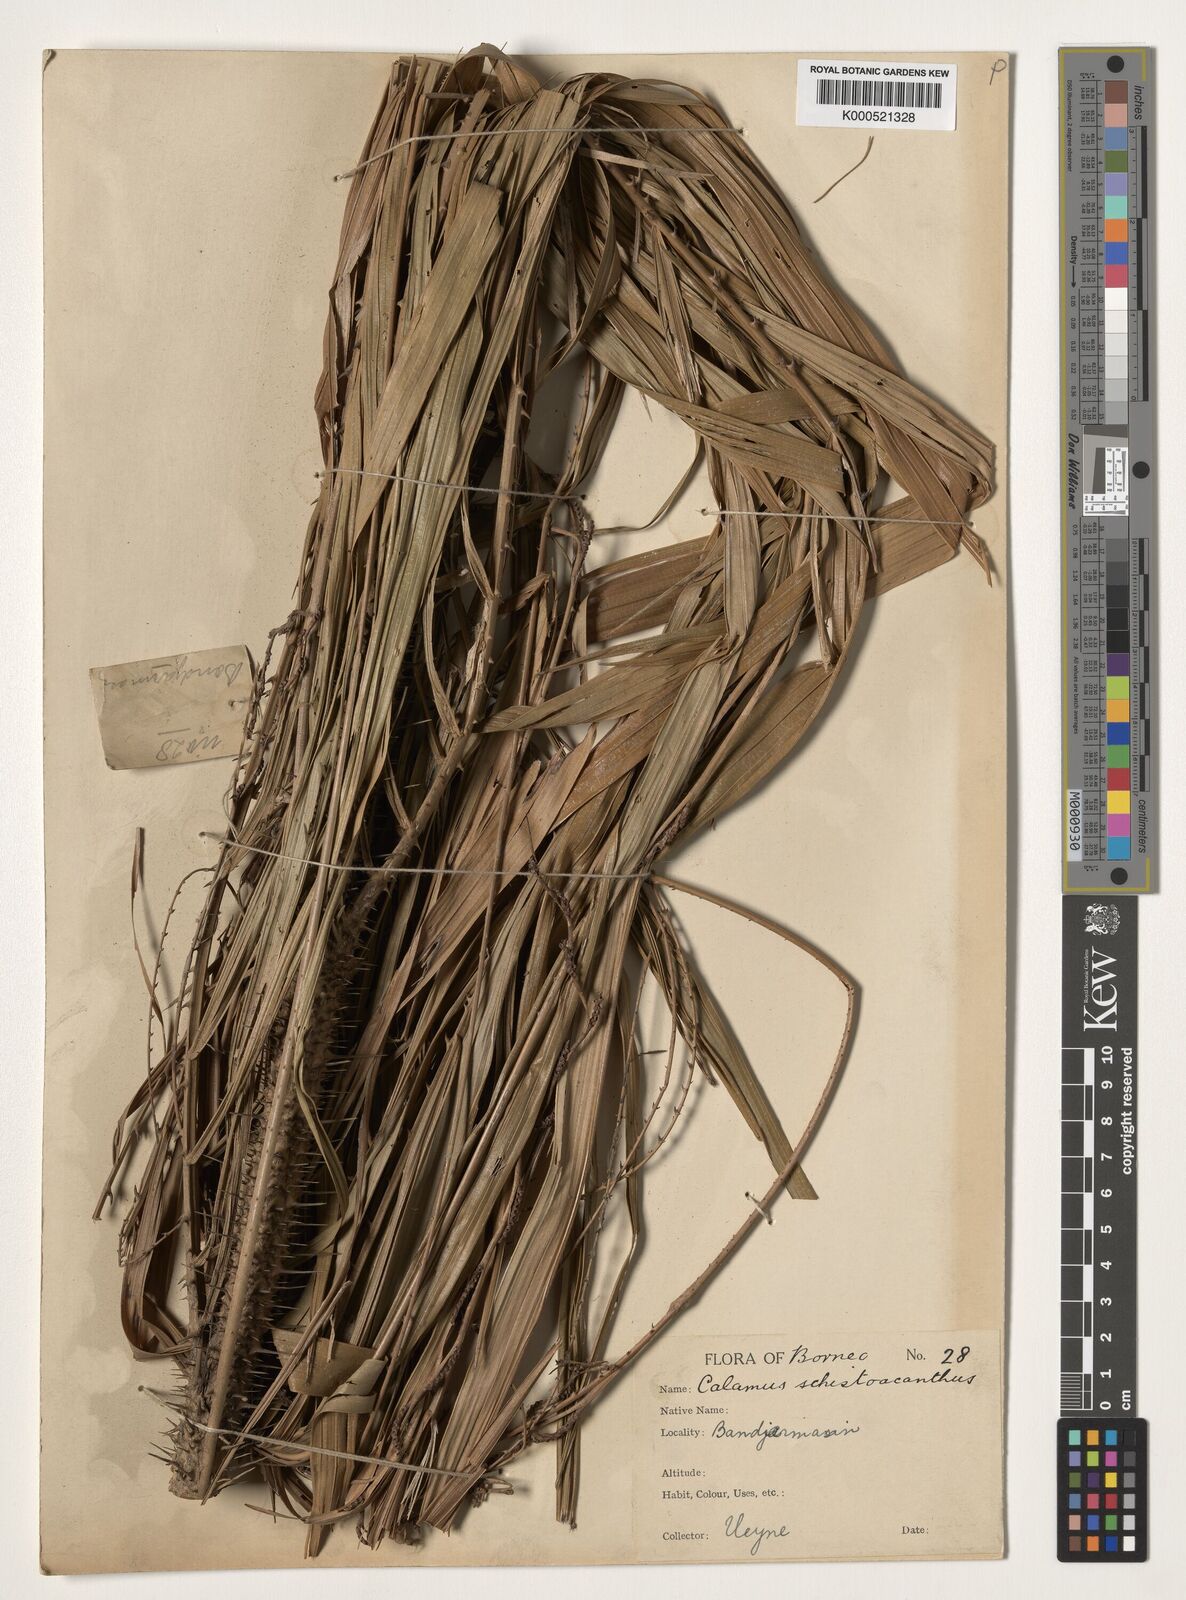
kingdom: Plantae
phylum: Tracheophyta
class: Liliopsida
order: Arecales
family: Arecaceae
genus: Calamus
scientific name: Calamus schistoacanthus
